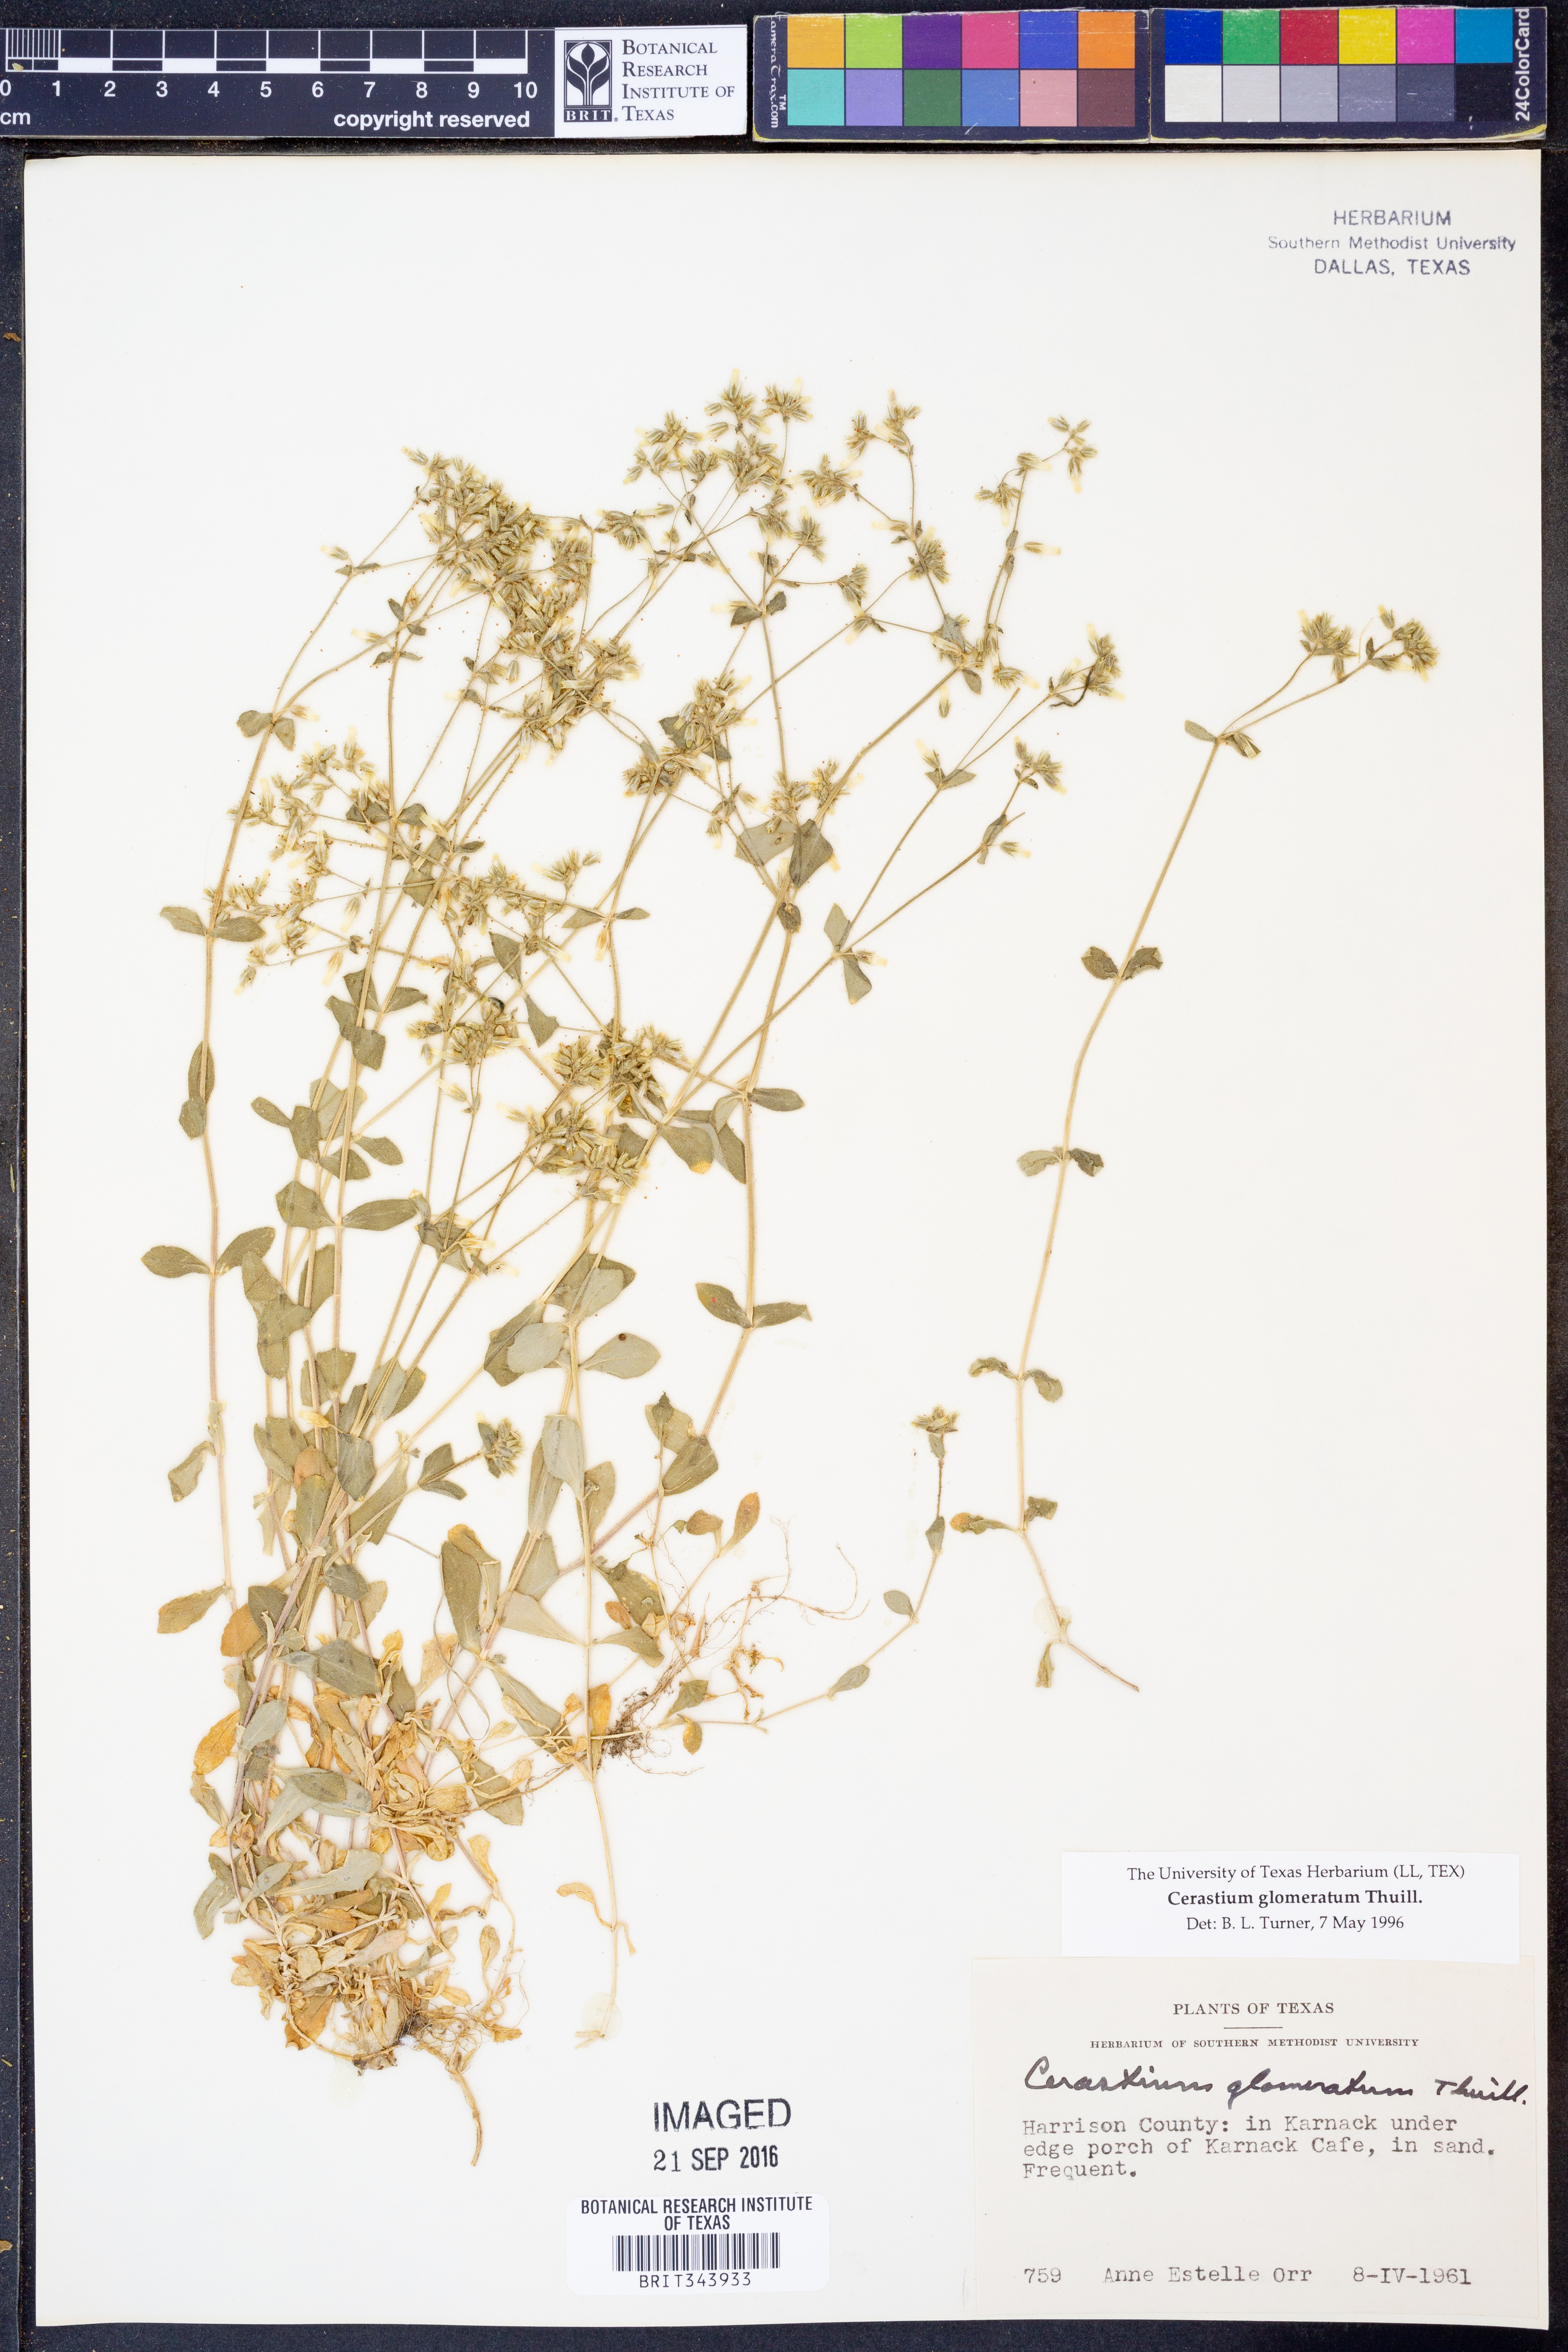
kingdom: Plantae
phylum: Tracheophyta
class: Magnoliopsida
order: Caryophyllales
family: Caryophyllaceae
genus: Cerastium
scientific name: Cerastium glomeratum
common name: Sticky chickweed
